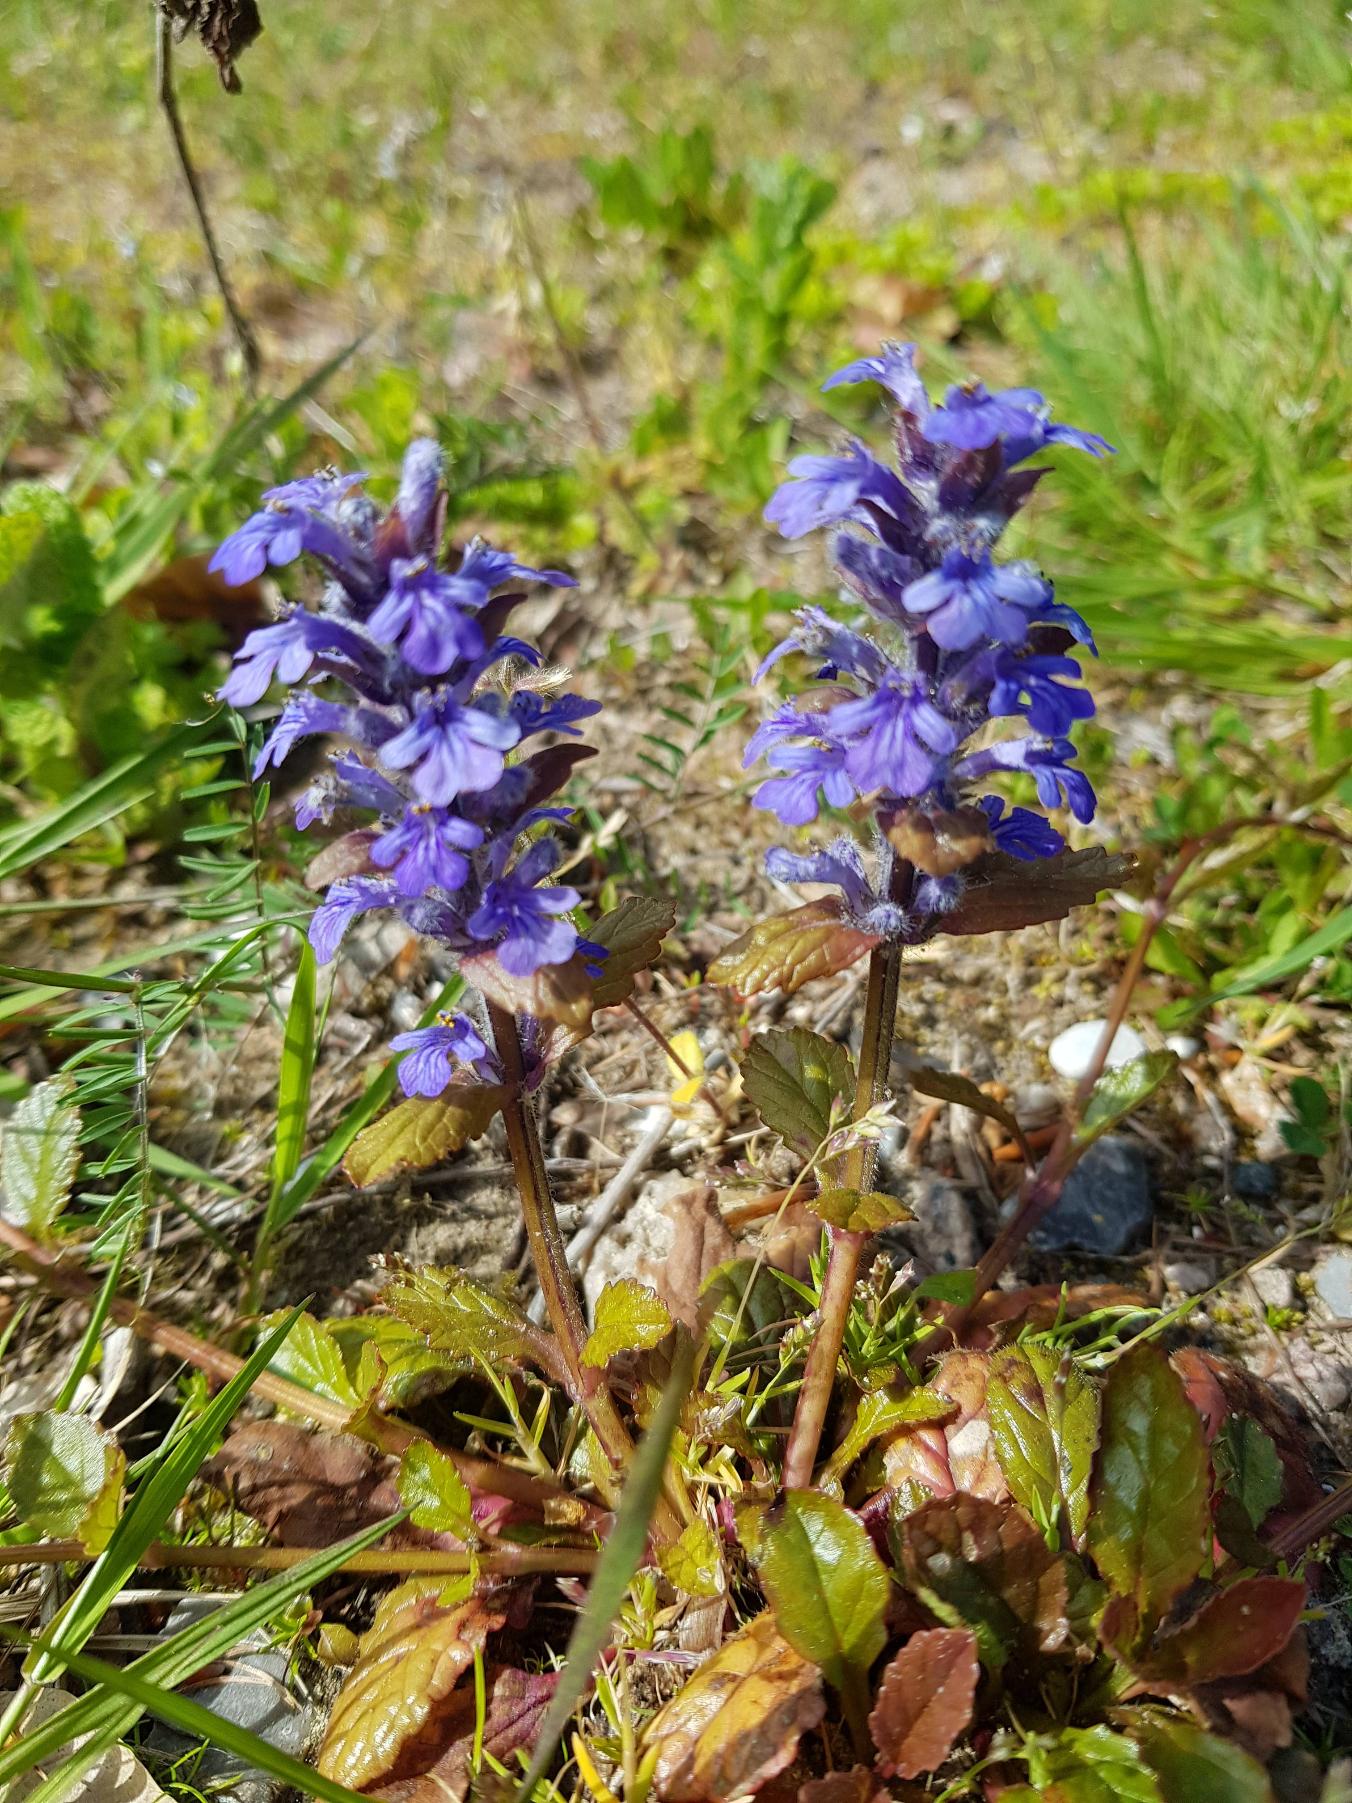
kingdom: Plantae
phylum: Tracheophyta
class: Magnoliopsida
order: Lamiales
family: Lamiaceae
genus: Ajuga
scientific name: Ajuga reptans
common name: Krybende læbeløs
